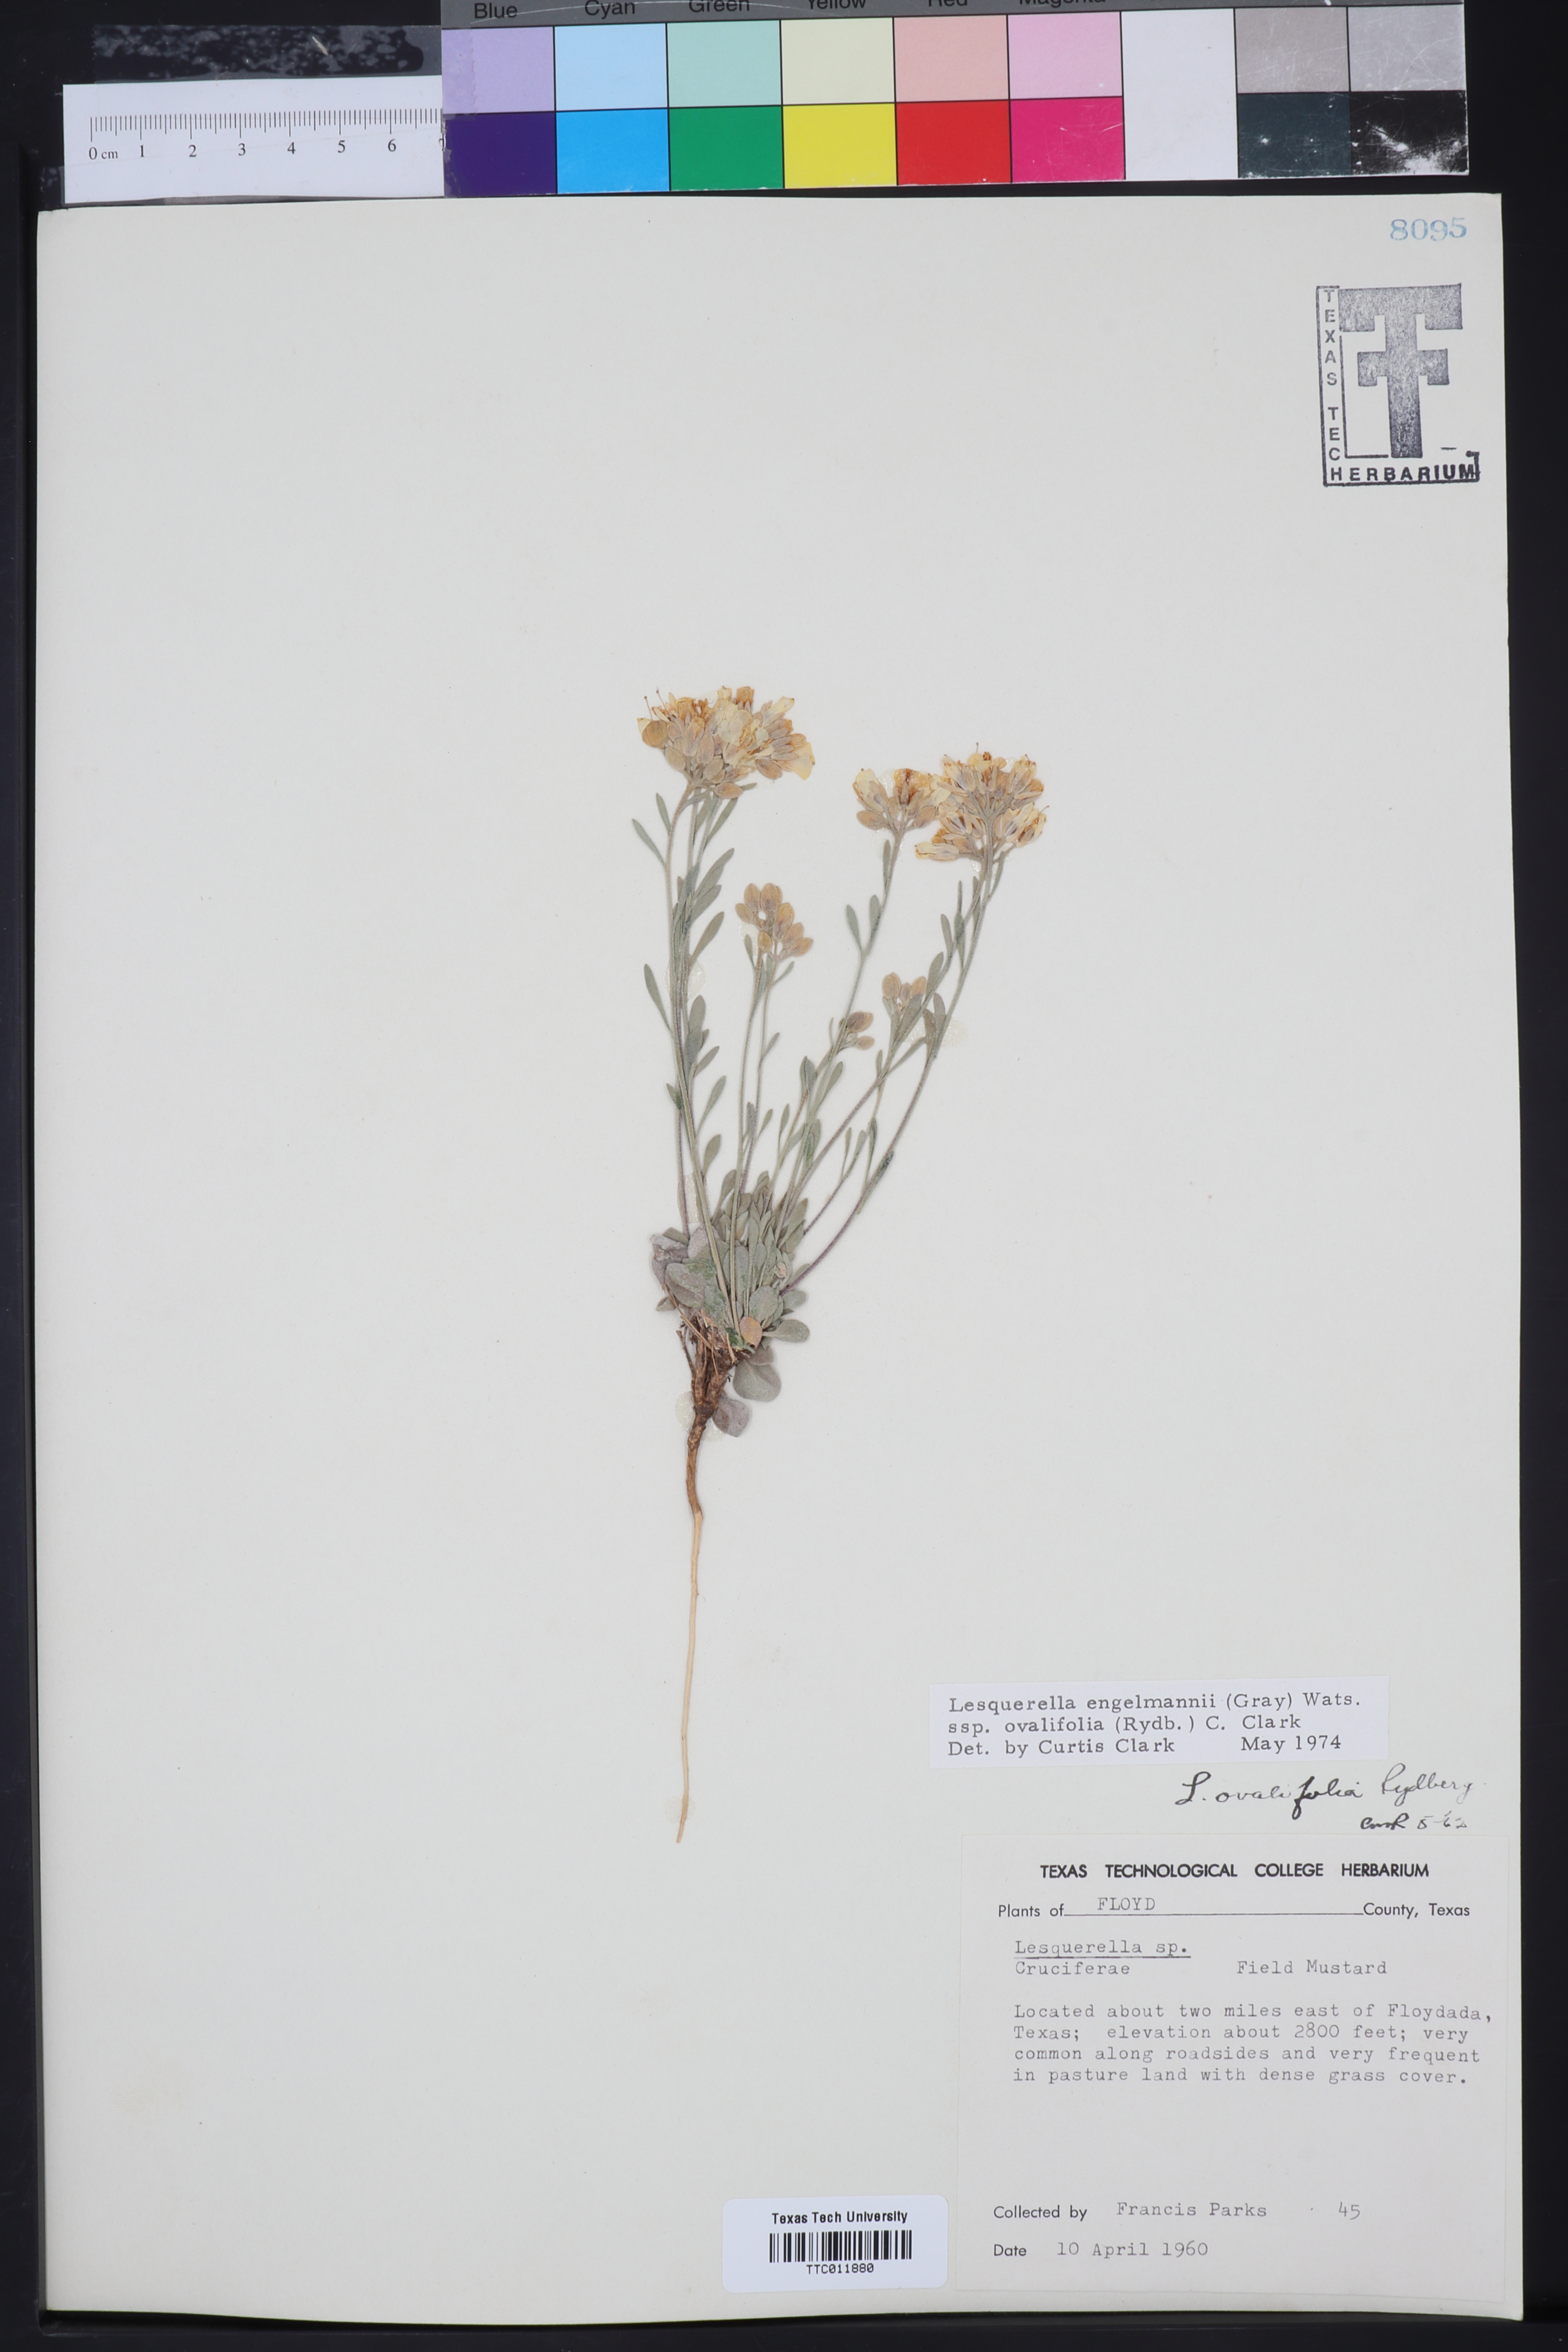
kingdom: Plantae
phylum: Tracheophyta
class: Magnoliopsida
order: Brassicales
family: Brassicaceae
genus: Physaria
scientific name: Physaria ovalifolia
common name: Round-leaf bladderpod
